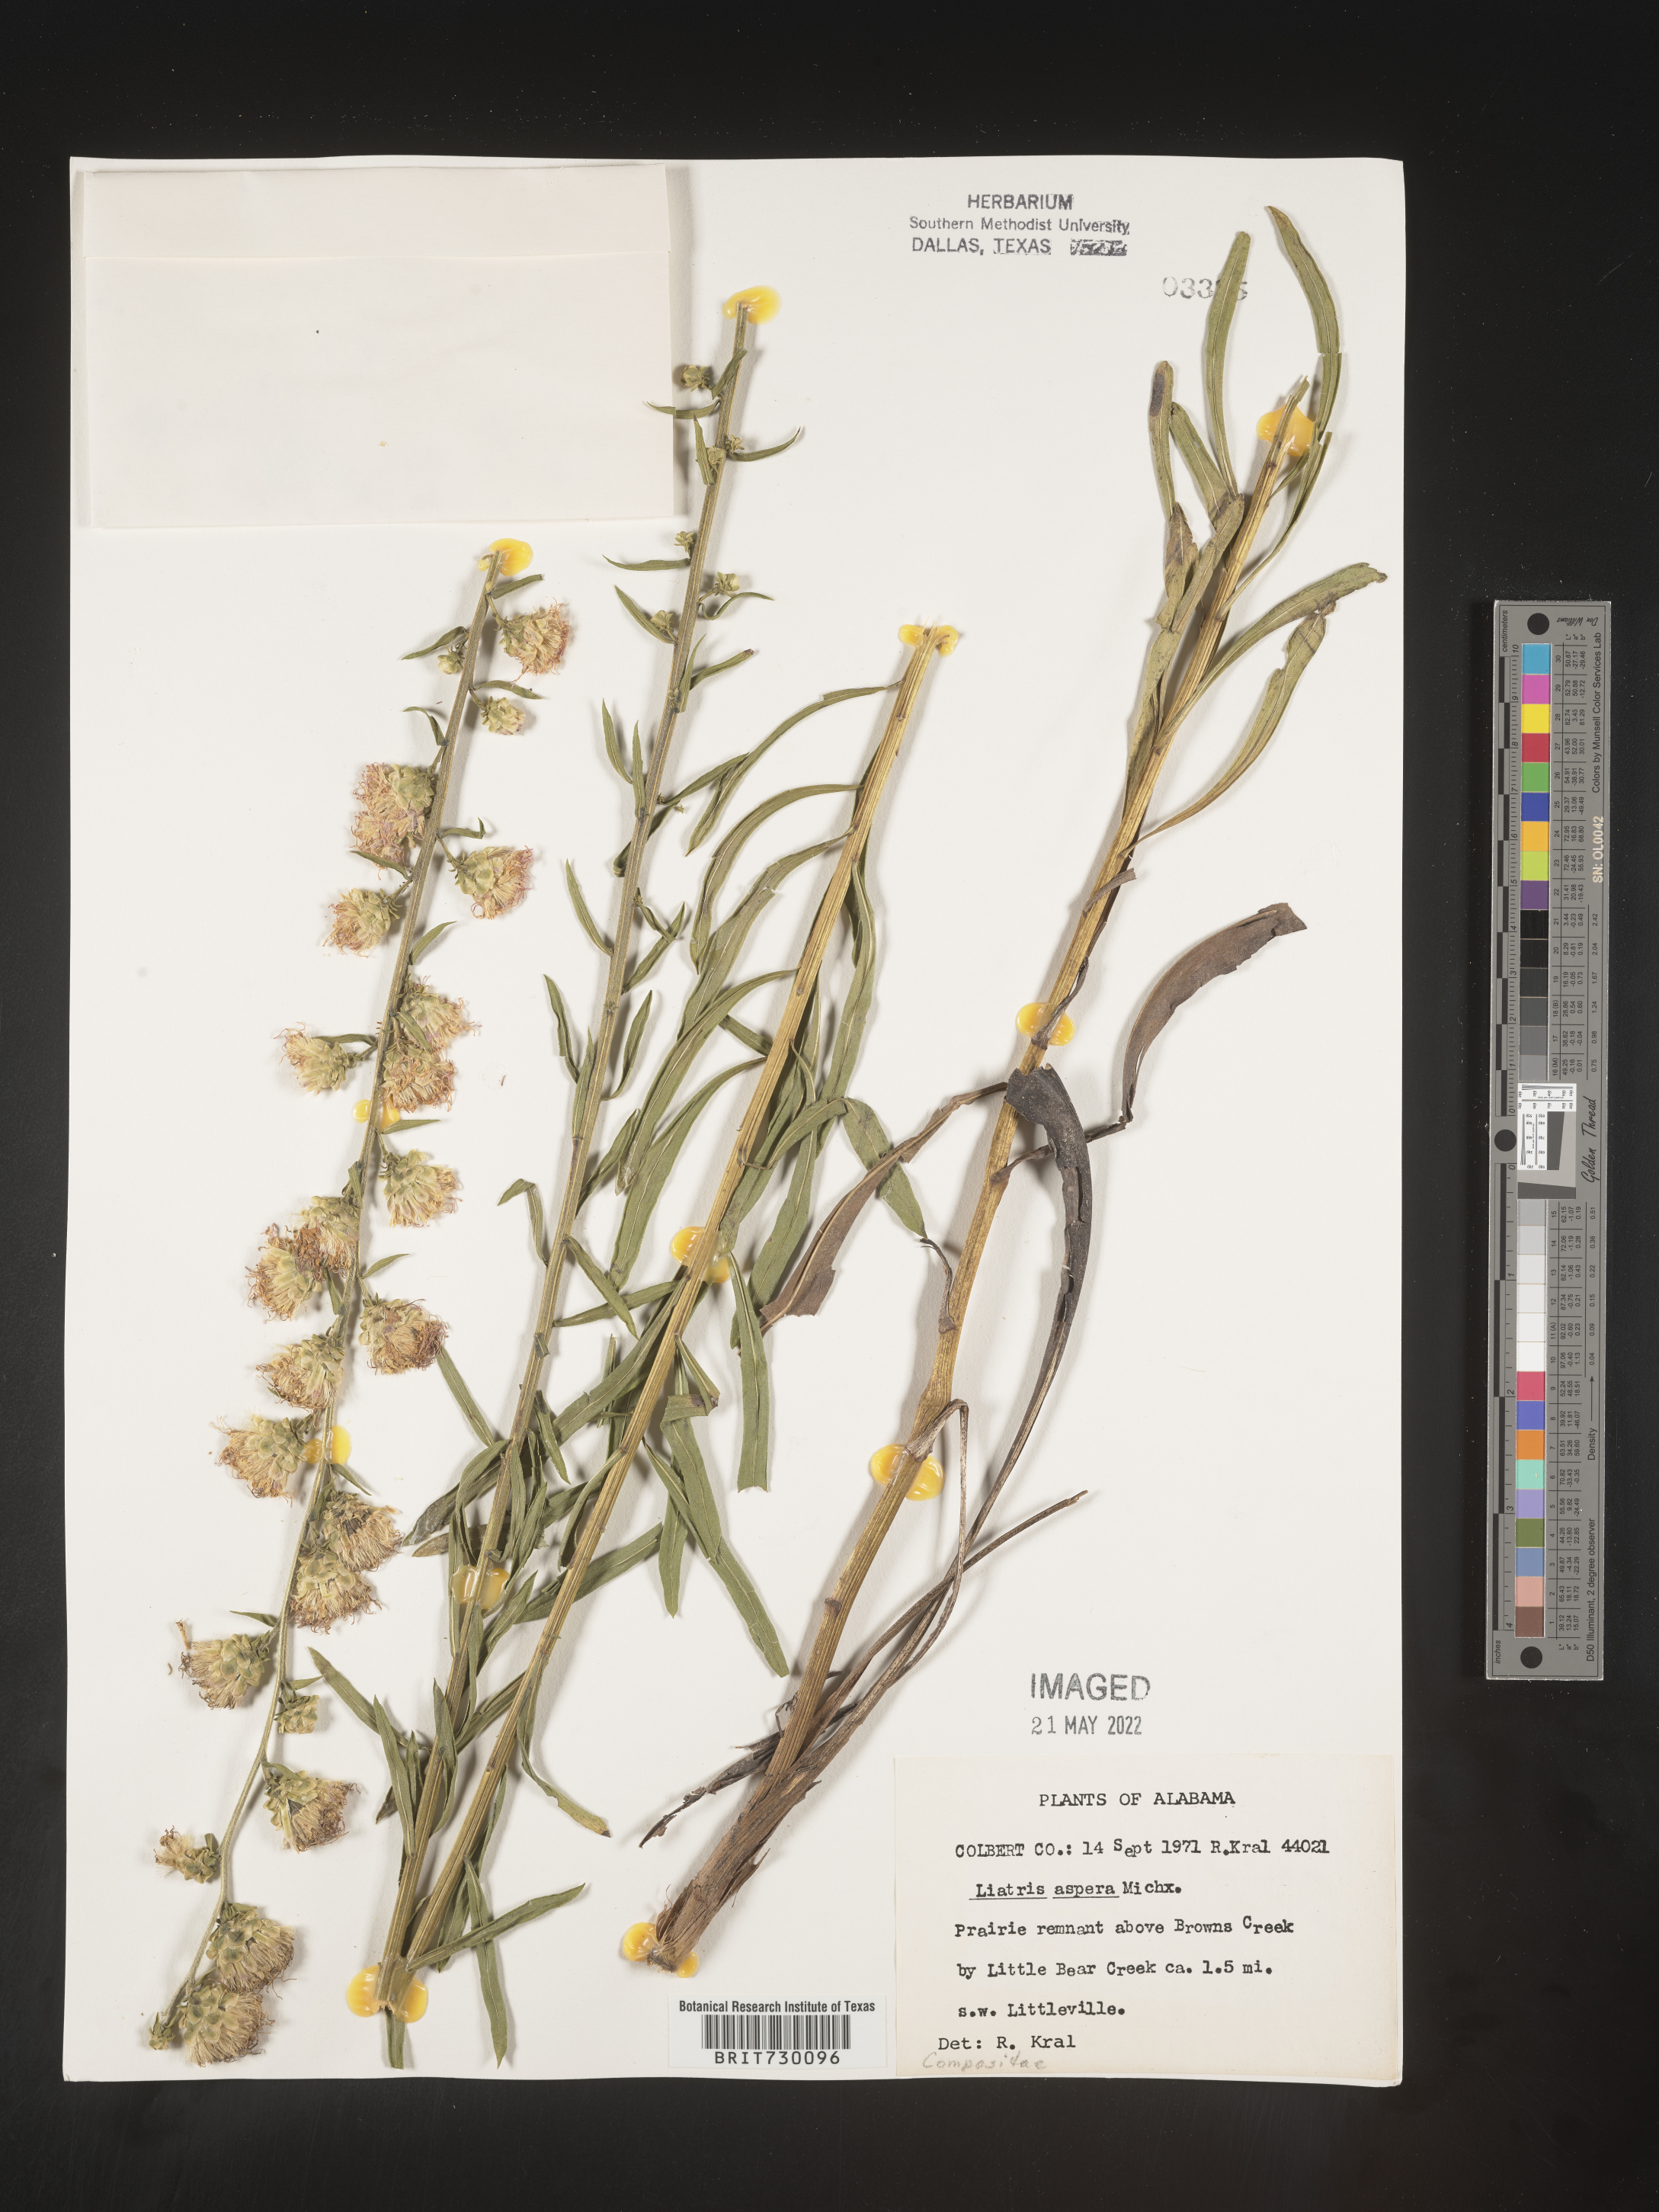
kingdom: Plantae
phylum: Tracheophyta
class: Magnoliopsida
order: Asterales
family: Asteraceae
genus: Liatris
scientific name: Liatris aspera
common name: Lacerate blazing-star
